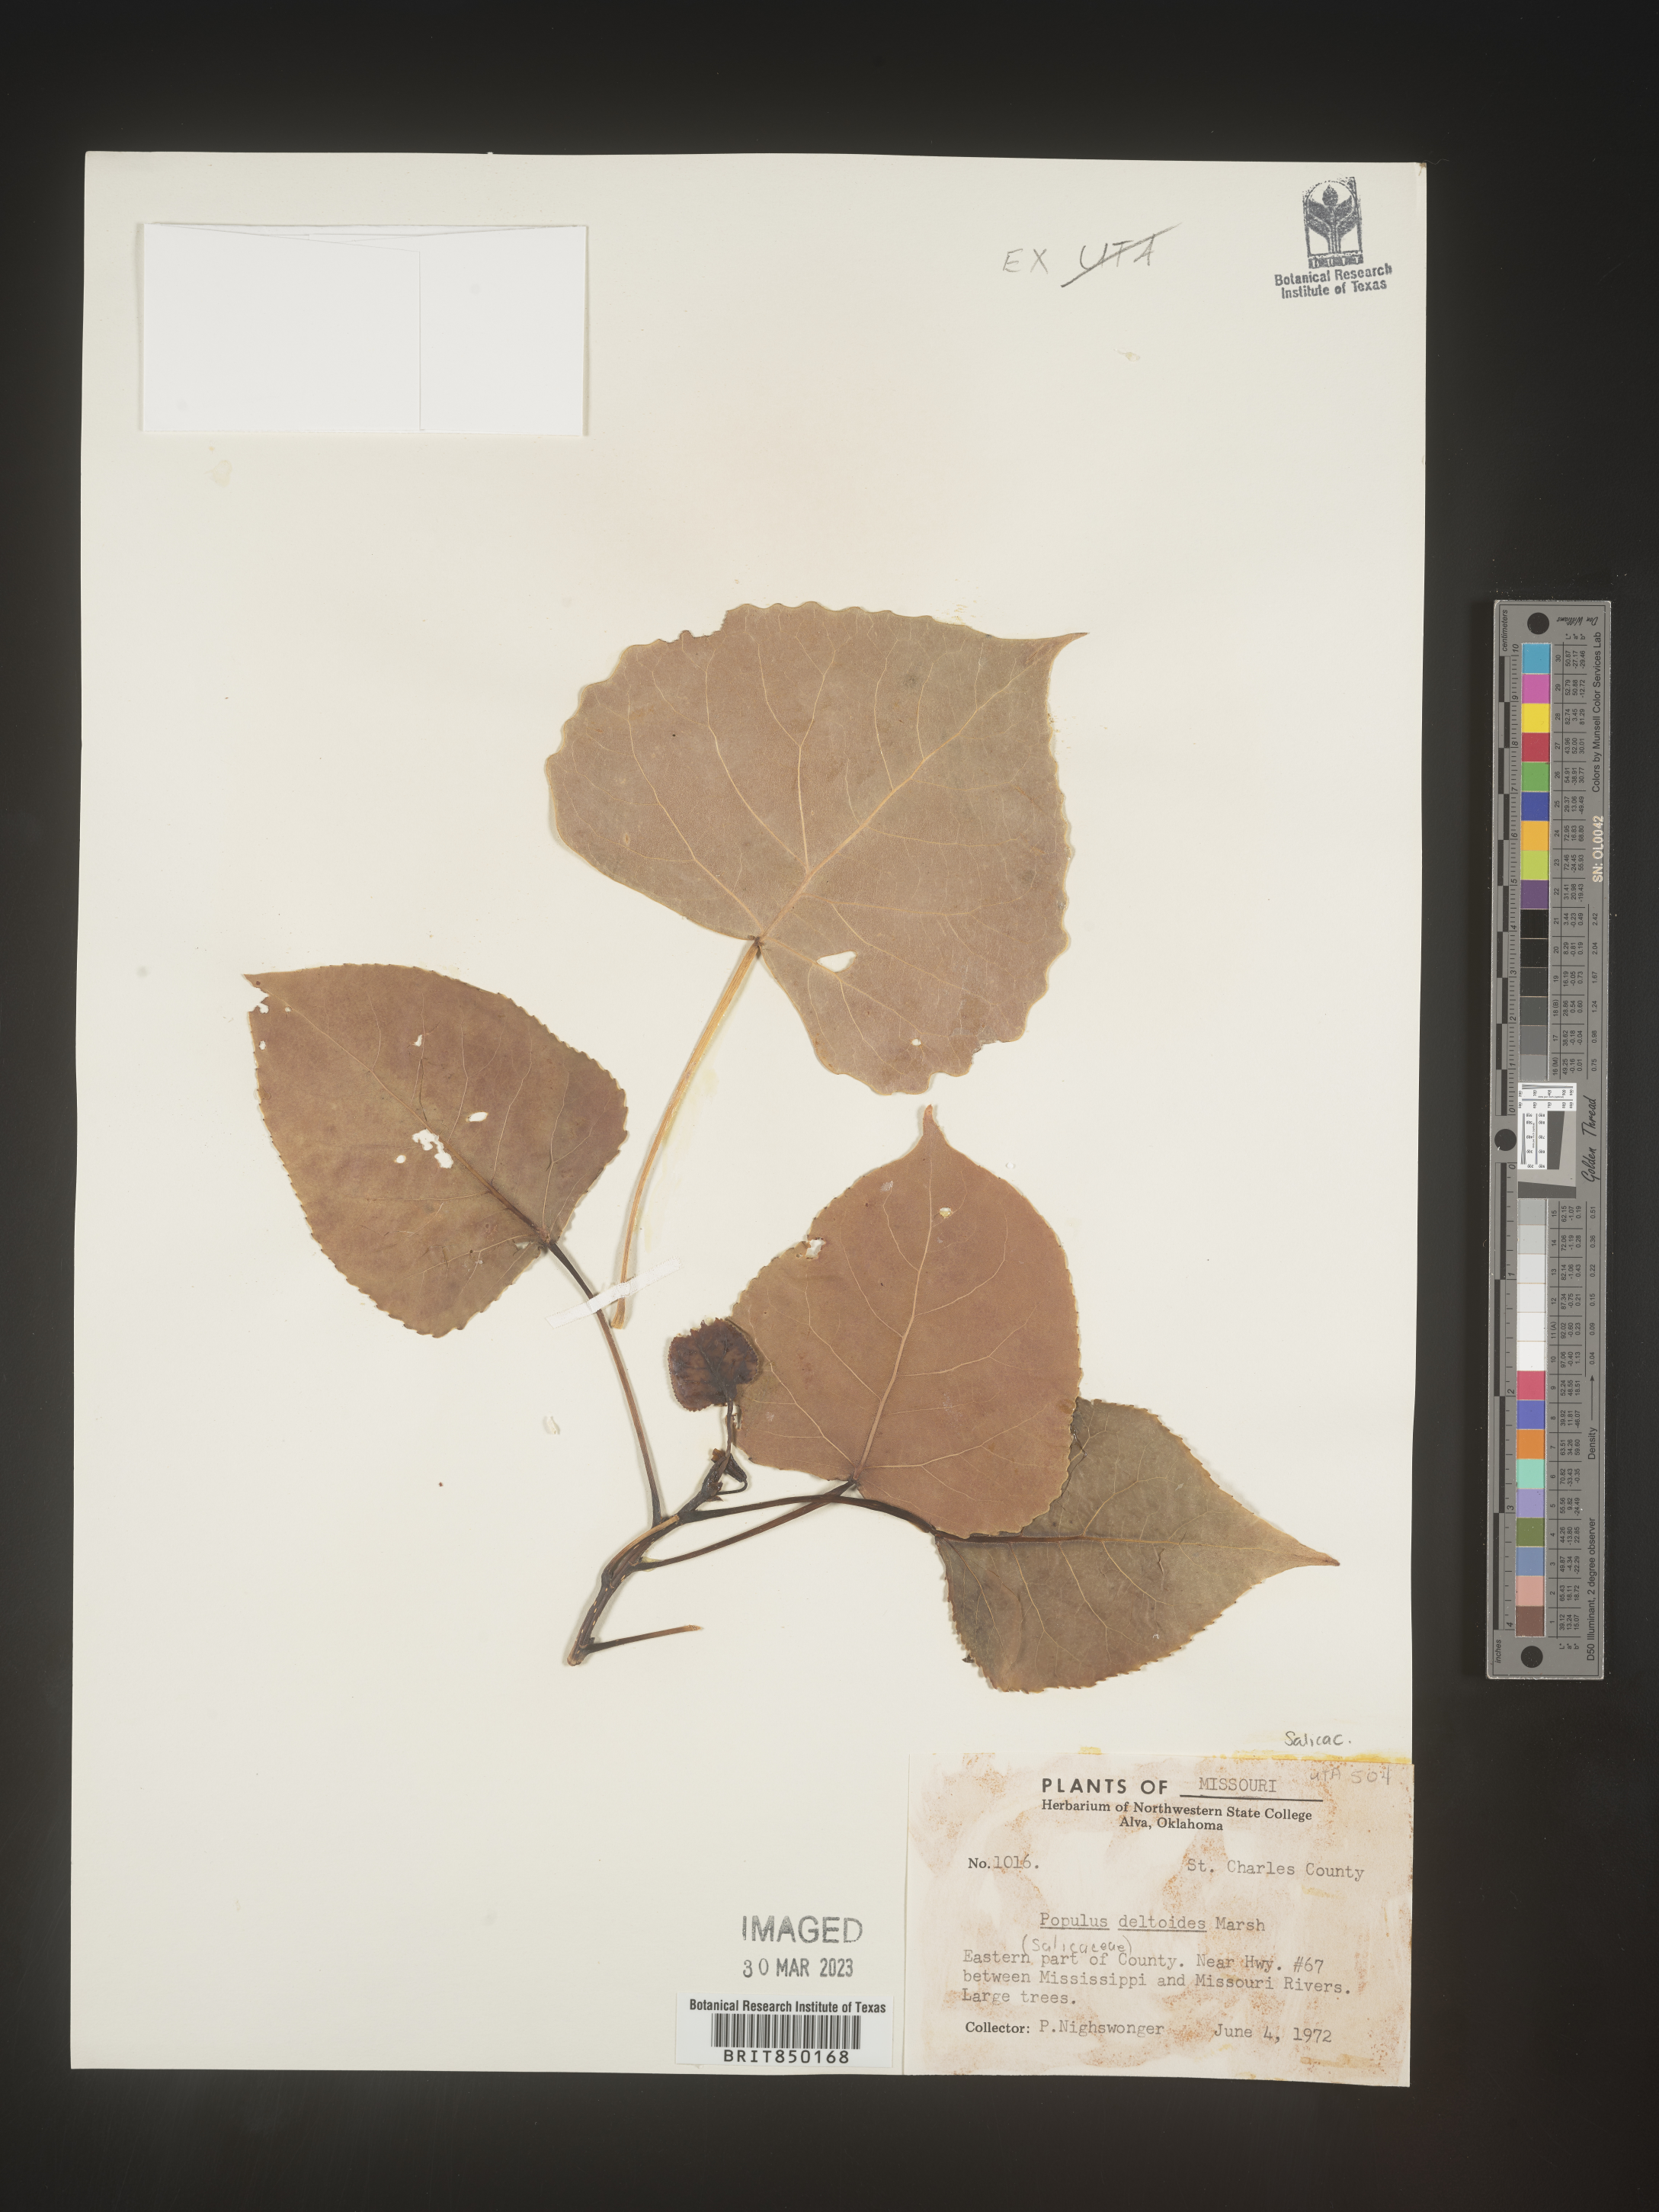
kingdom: Plantae
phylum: Tracheophyta
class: Magnoliopsida
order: Malpighiales
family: Salicaceae
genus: Populus
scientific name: Populus deltoides
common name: Eastern cottonwood
